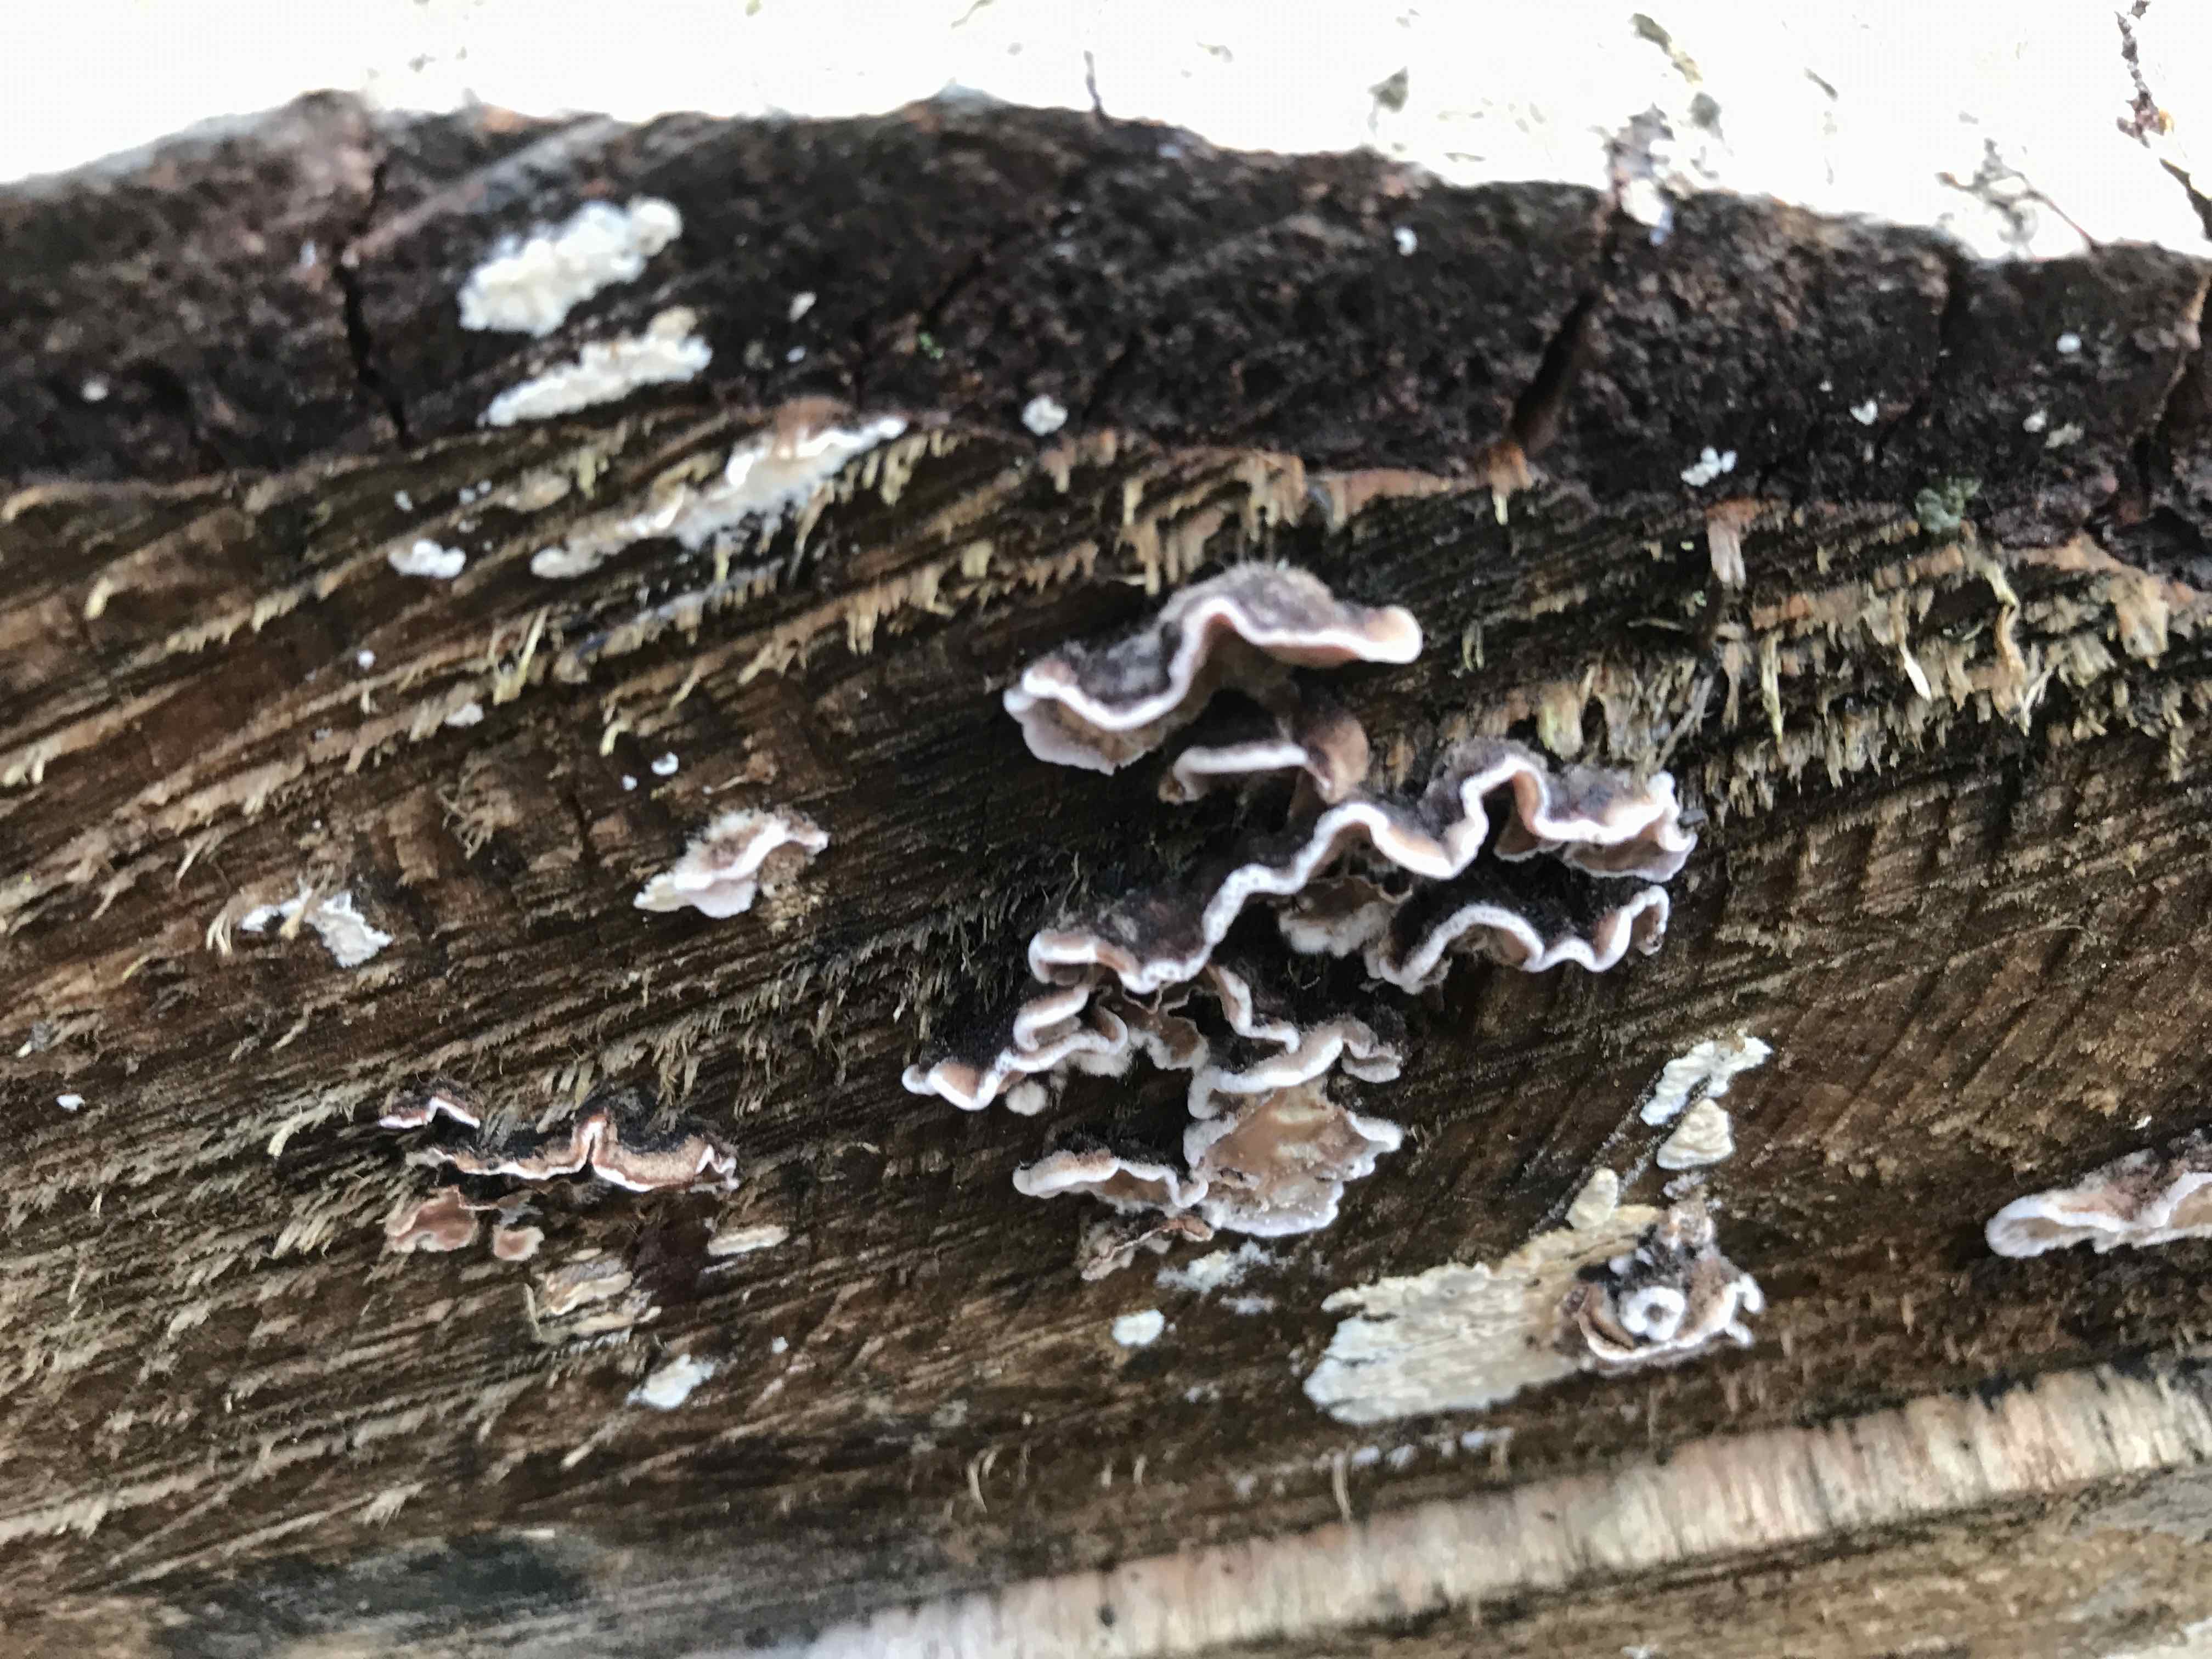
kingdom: Fungi
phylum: Basidiomycota
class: Agaricomycetes
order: Agaricales
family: Cyphellaceae
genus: Chondrostereum
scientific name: Chondrostereum purpureum
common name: purpurlædersvamp
